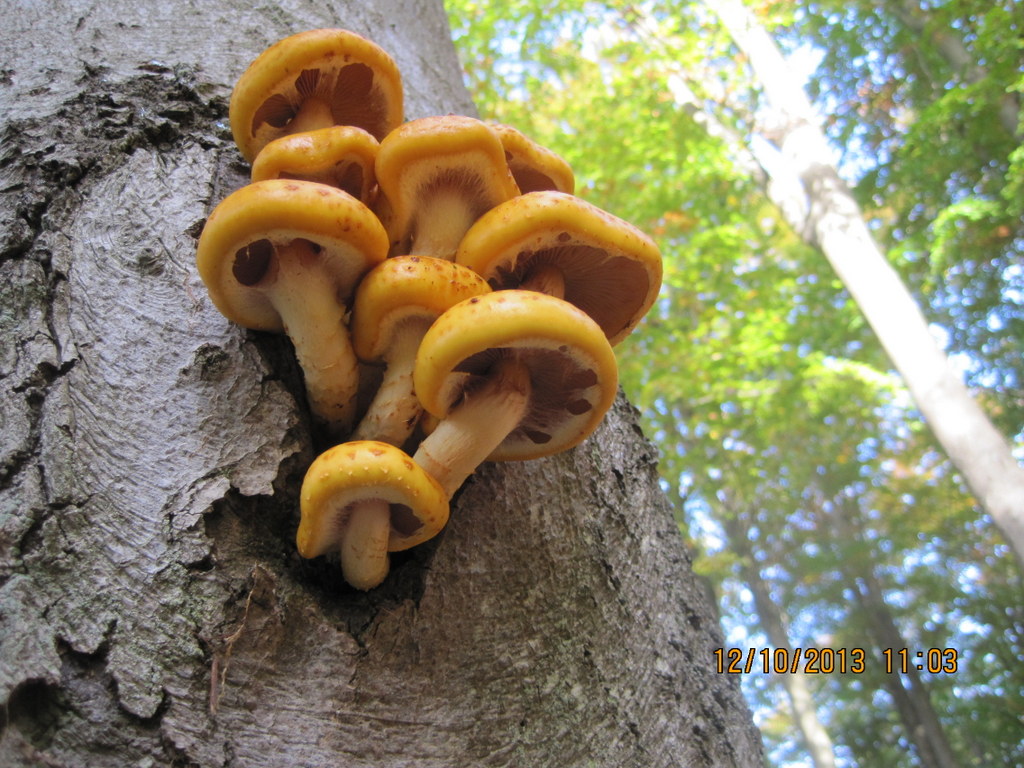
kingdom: Fungi
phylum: Basidiomycota
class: Agaricomycetes
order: Agaricales
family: Strophariaceae
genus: Pholiota
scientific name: Pholiota adiposa
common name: højtsiddende skælhat
